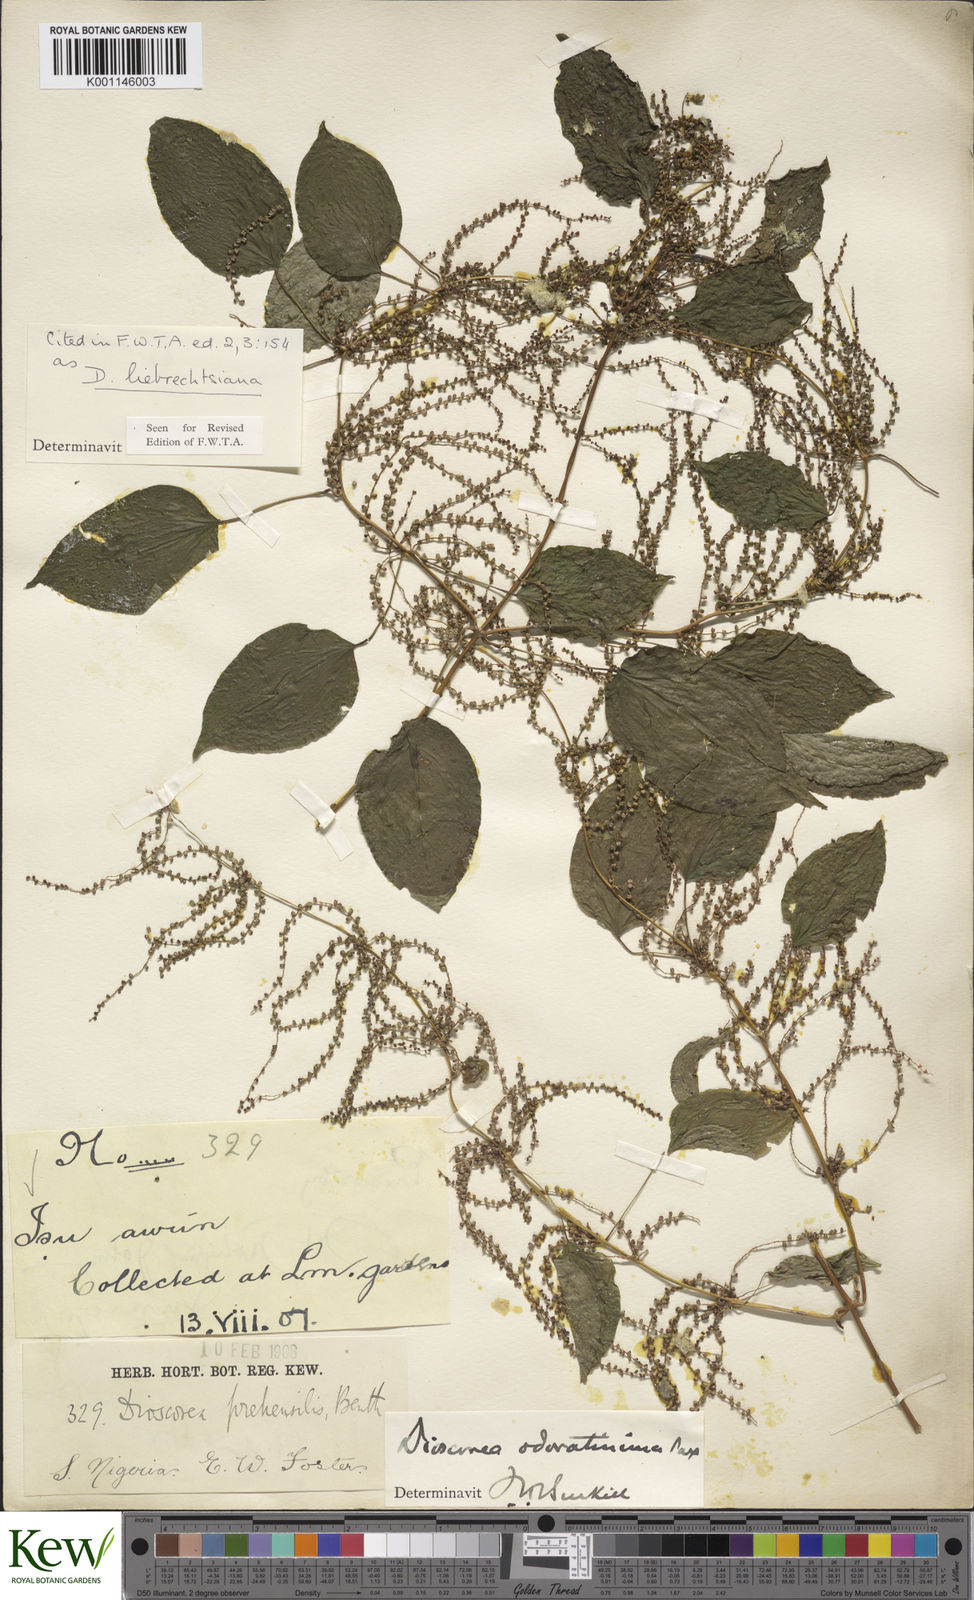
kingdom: Plantae
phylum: Tracheophyta
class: Liliopsida
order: Dioscoreales
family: Dioscoreaceae
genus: Dioscorea
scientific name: Dioscorea praehensilis
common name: Bush yam
